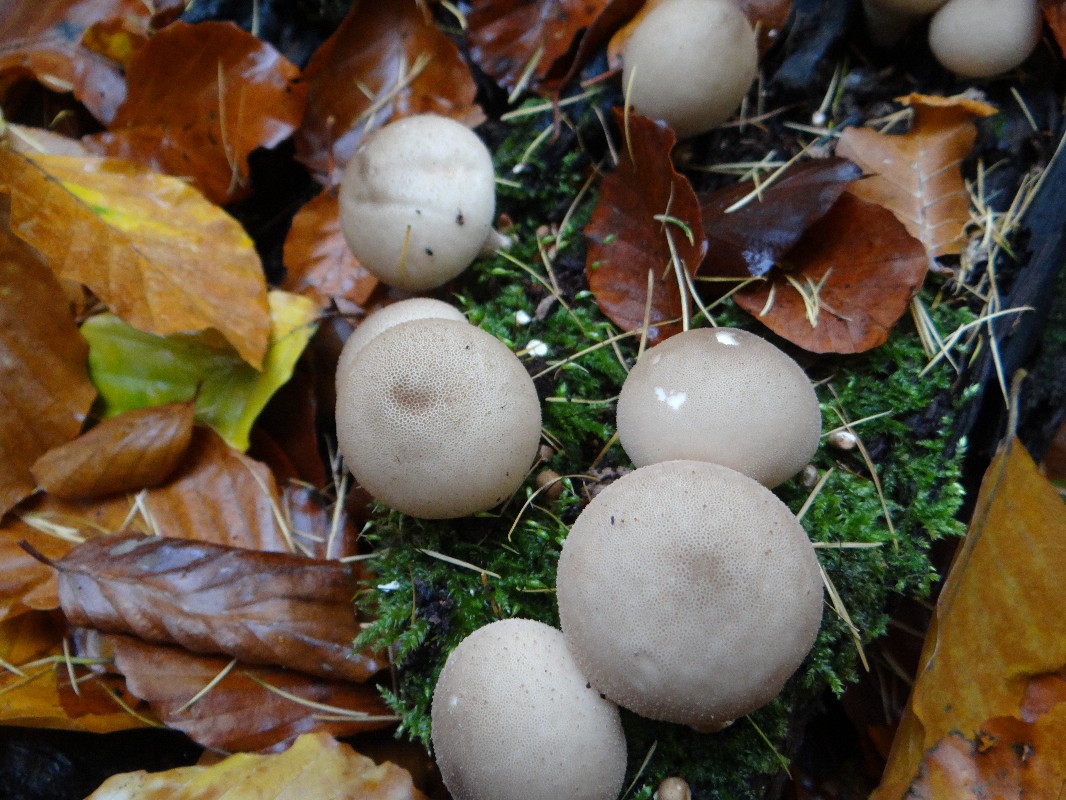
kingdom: Fungi
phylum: Basidiomycota
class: Agaricomycetes
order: Agaricales
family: Lycoperdaceae
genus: Apioperdon
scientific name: Apioperdon pyriforme
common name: pære-støvbold
